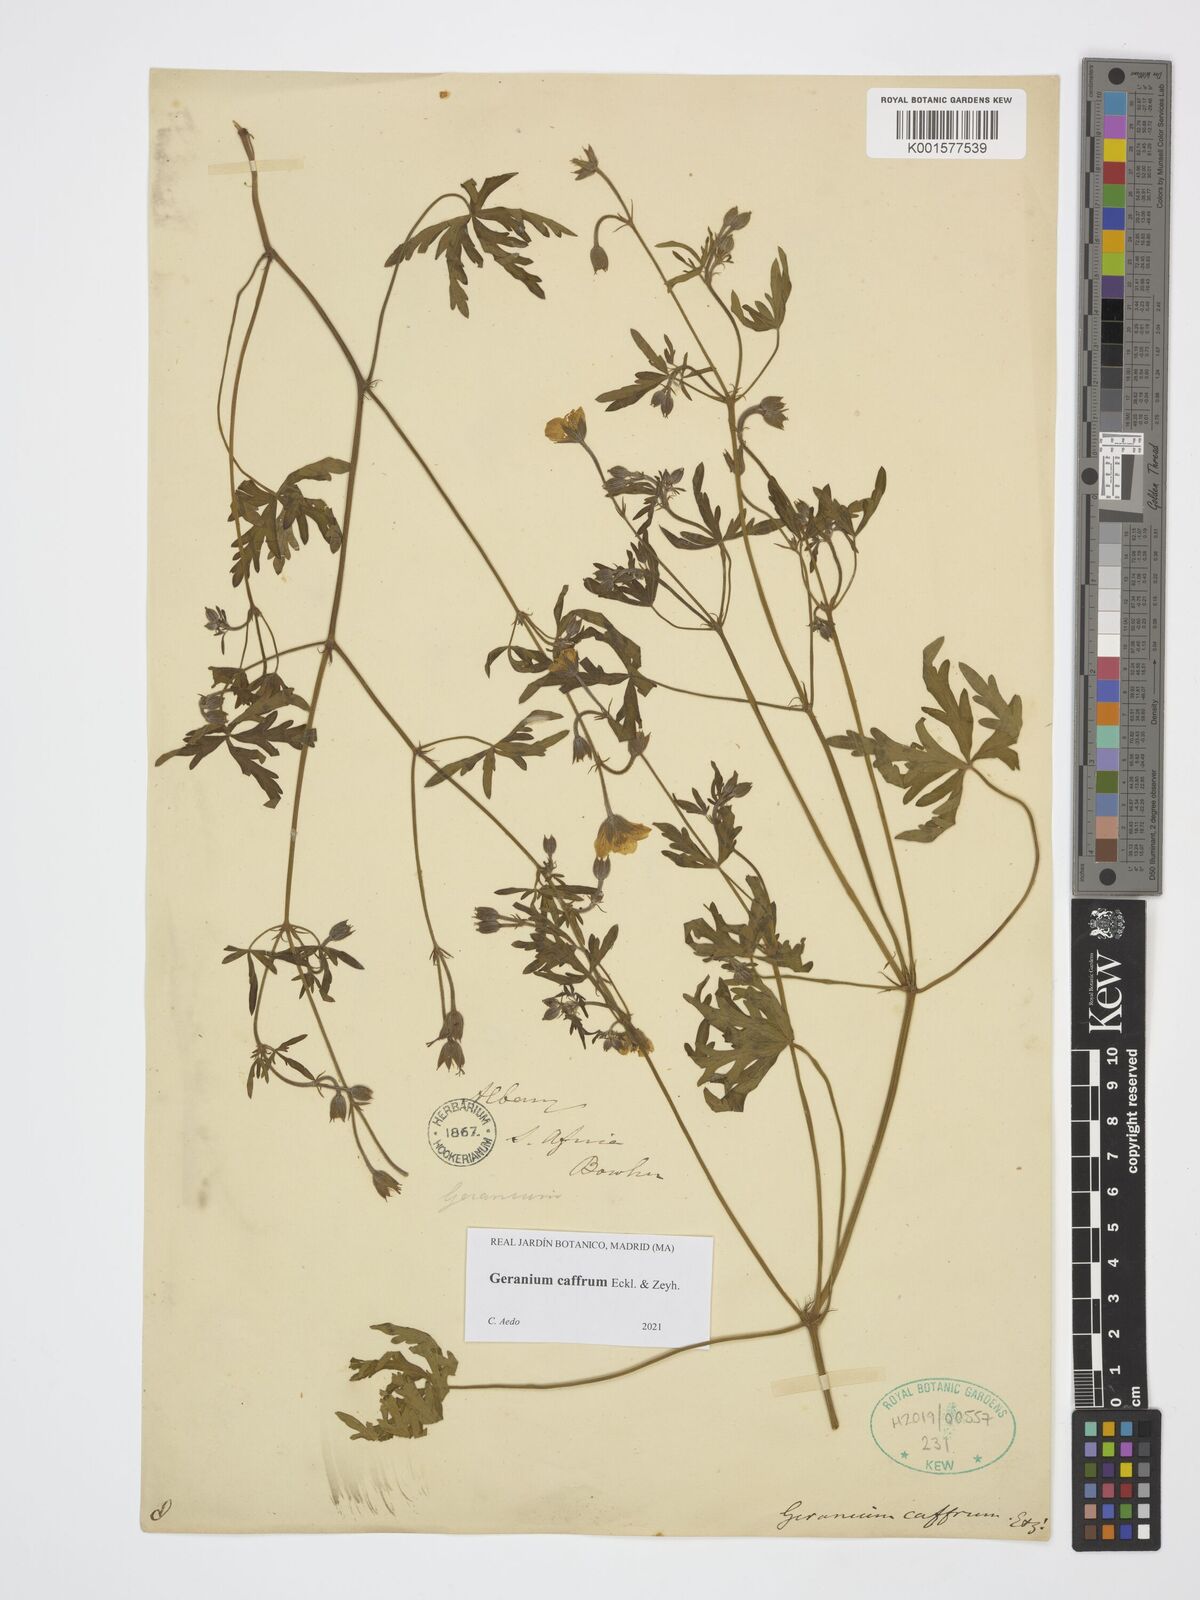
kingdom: Plantae
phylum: Tracheophyta
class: Magnoliopsida
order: Geraniales
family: Geraniaceae
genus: Geranium
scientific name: Geranium caffrum
